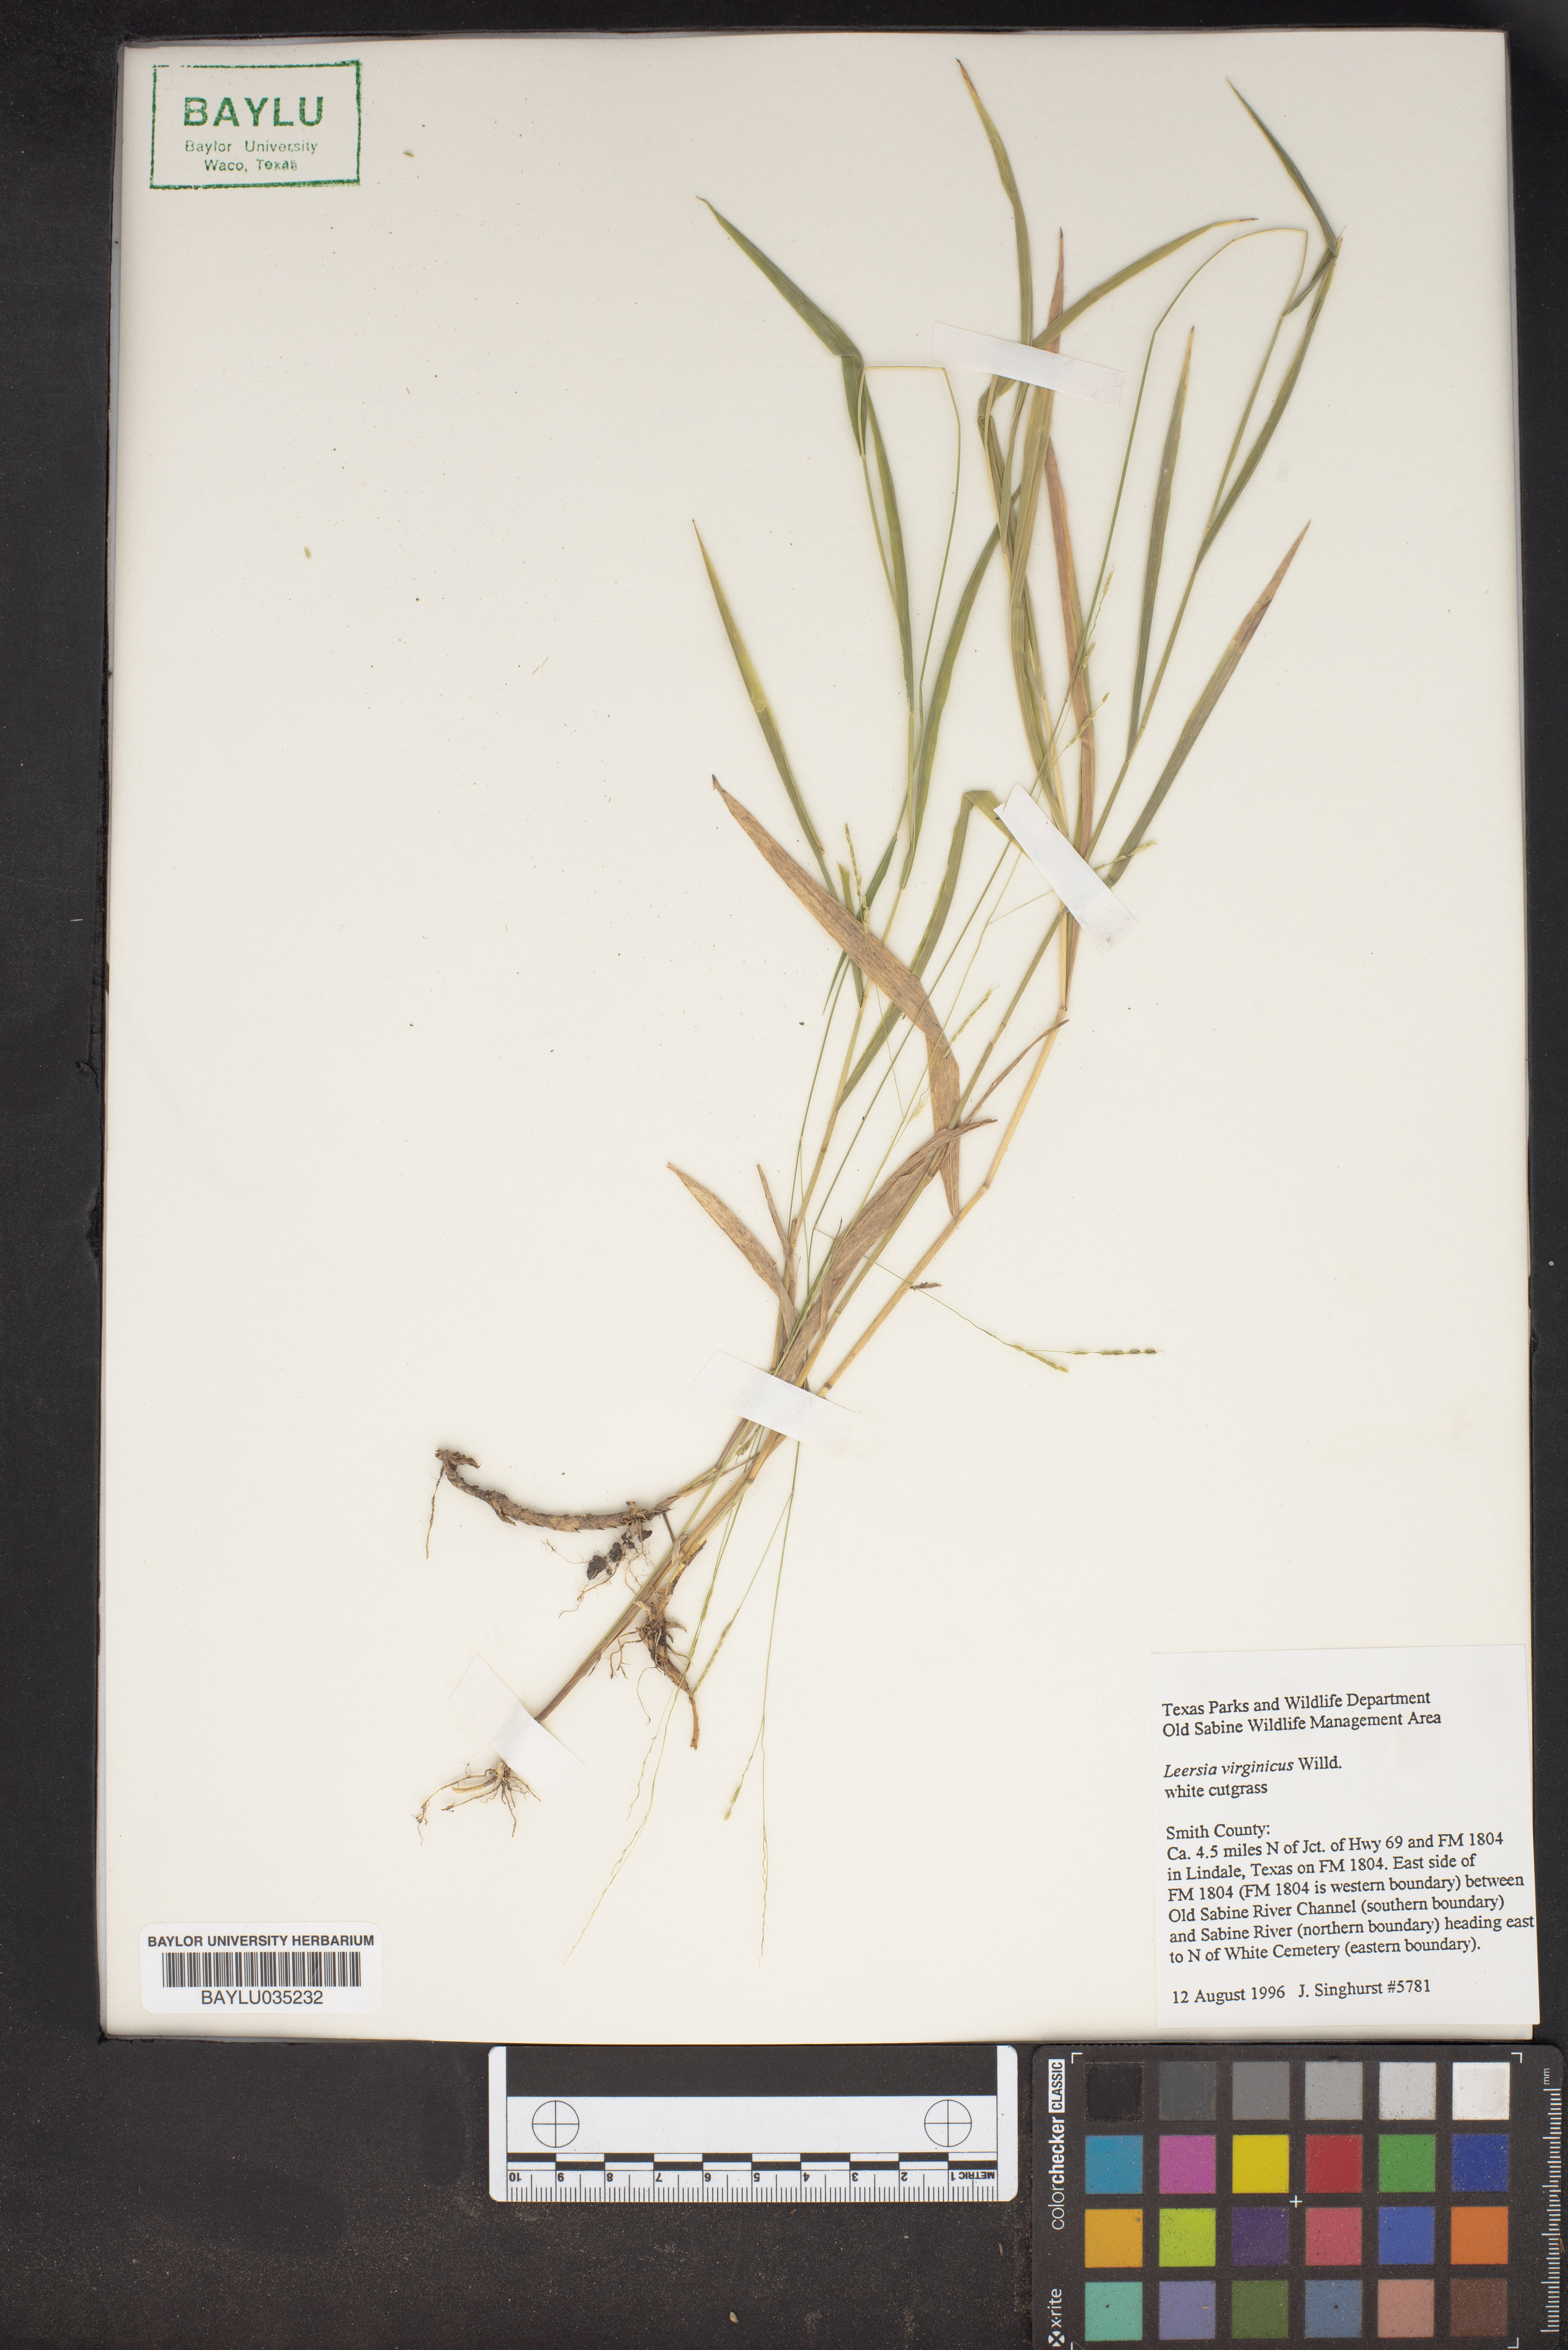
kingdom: Plantae
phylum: Tracheophyta
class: Liliopsida
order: Poales
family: Poaceae
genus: Leersia
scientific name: Leersia virginica
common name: White cutgrass
